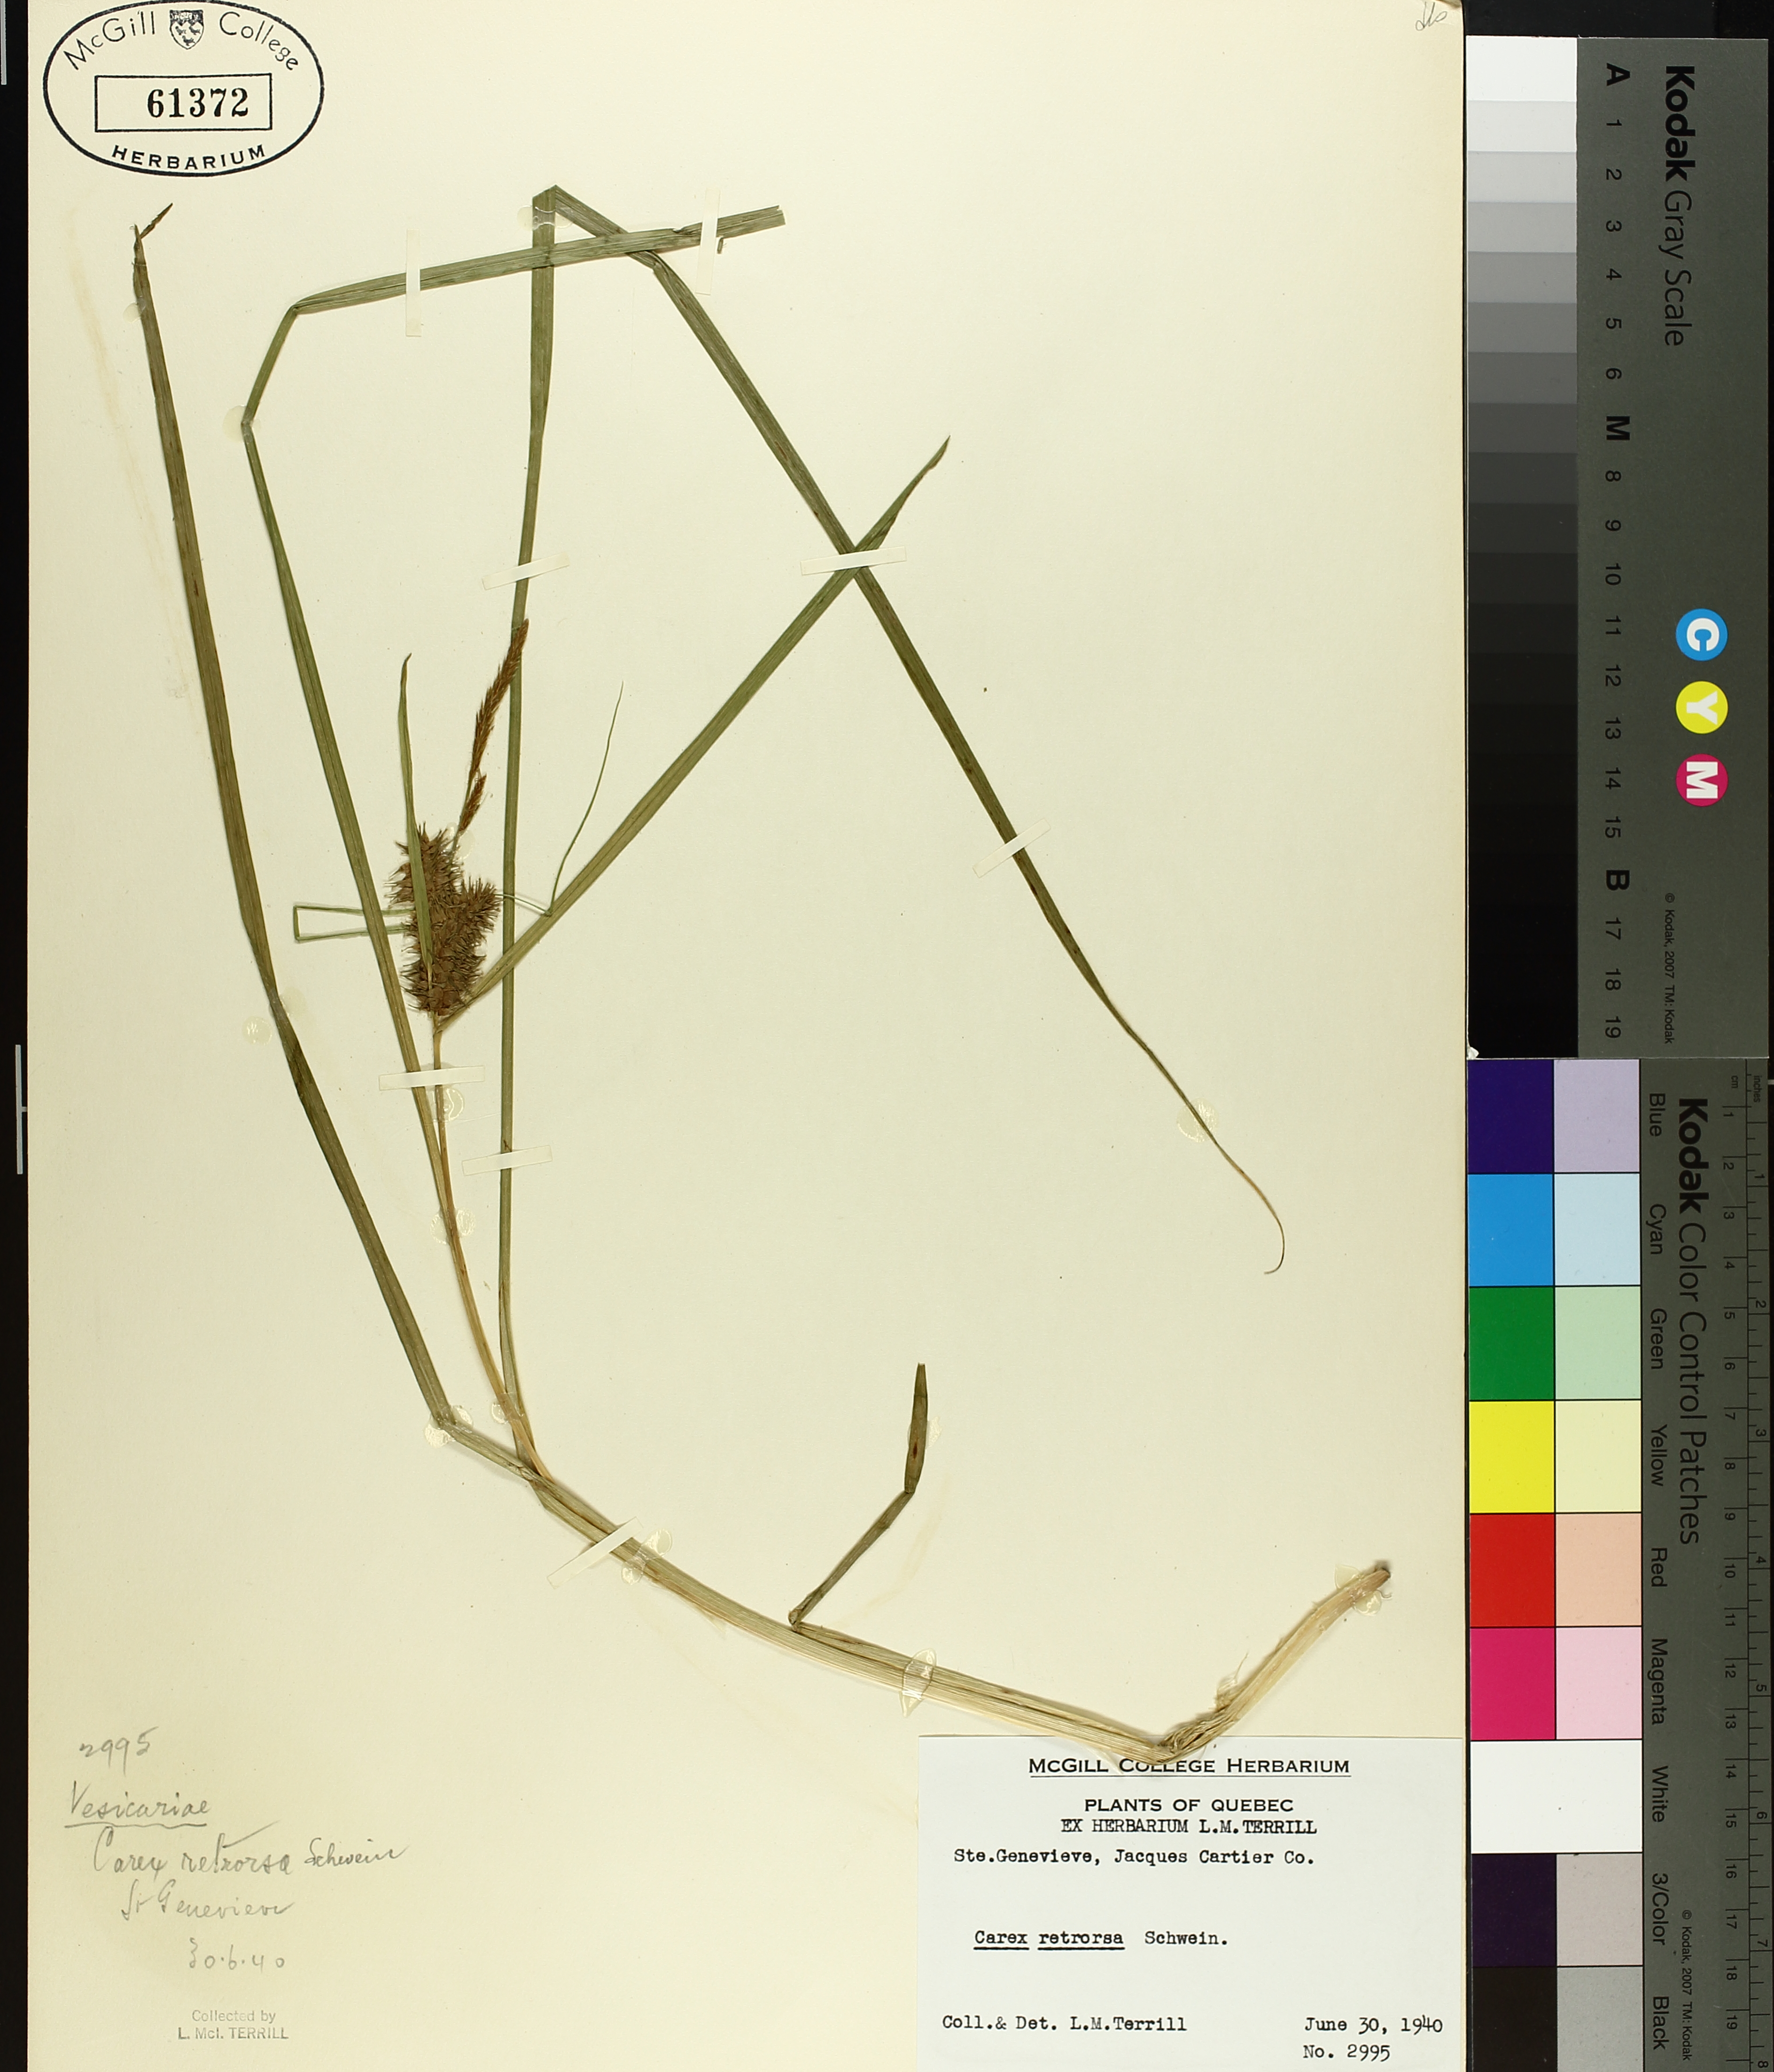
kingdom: Plantae
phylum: Tracheophyta
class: Liliopsida
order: Poales
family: Cyperaceae
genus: Carex
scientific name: Carex retrorsa
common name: Knot-sheath sedge
